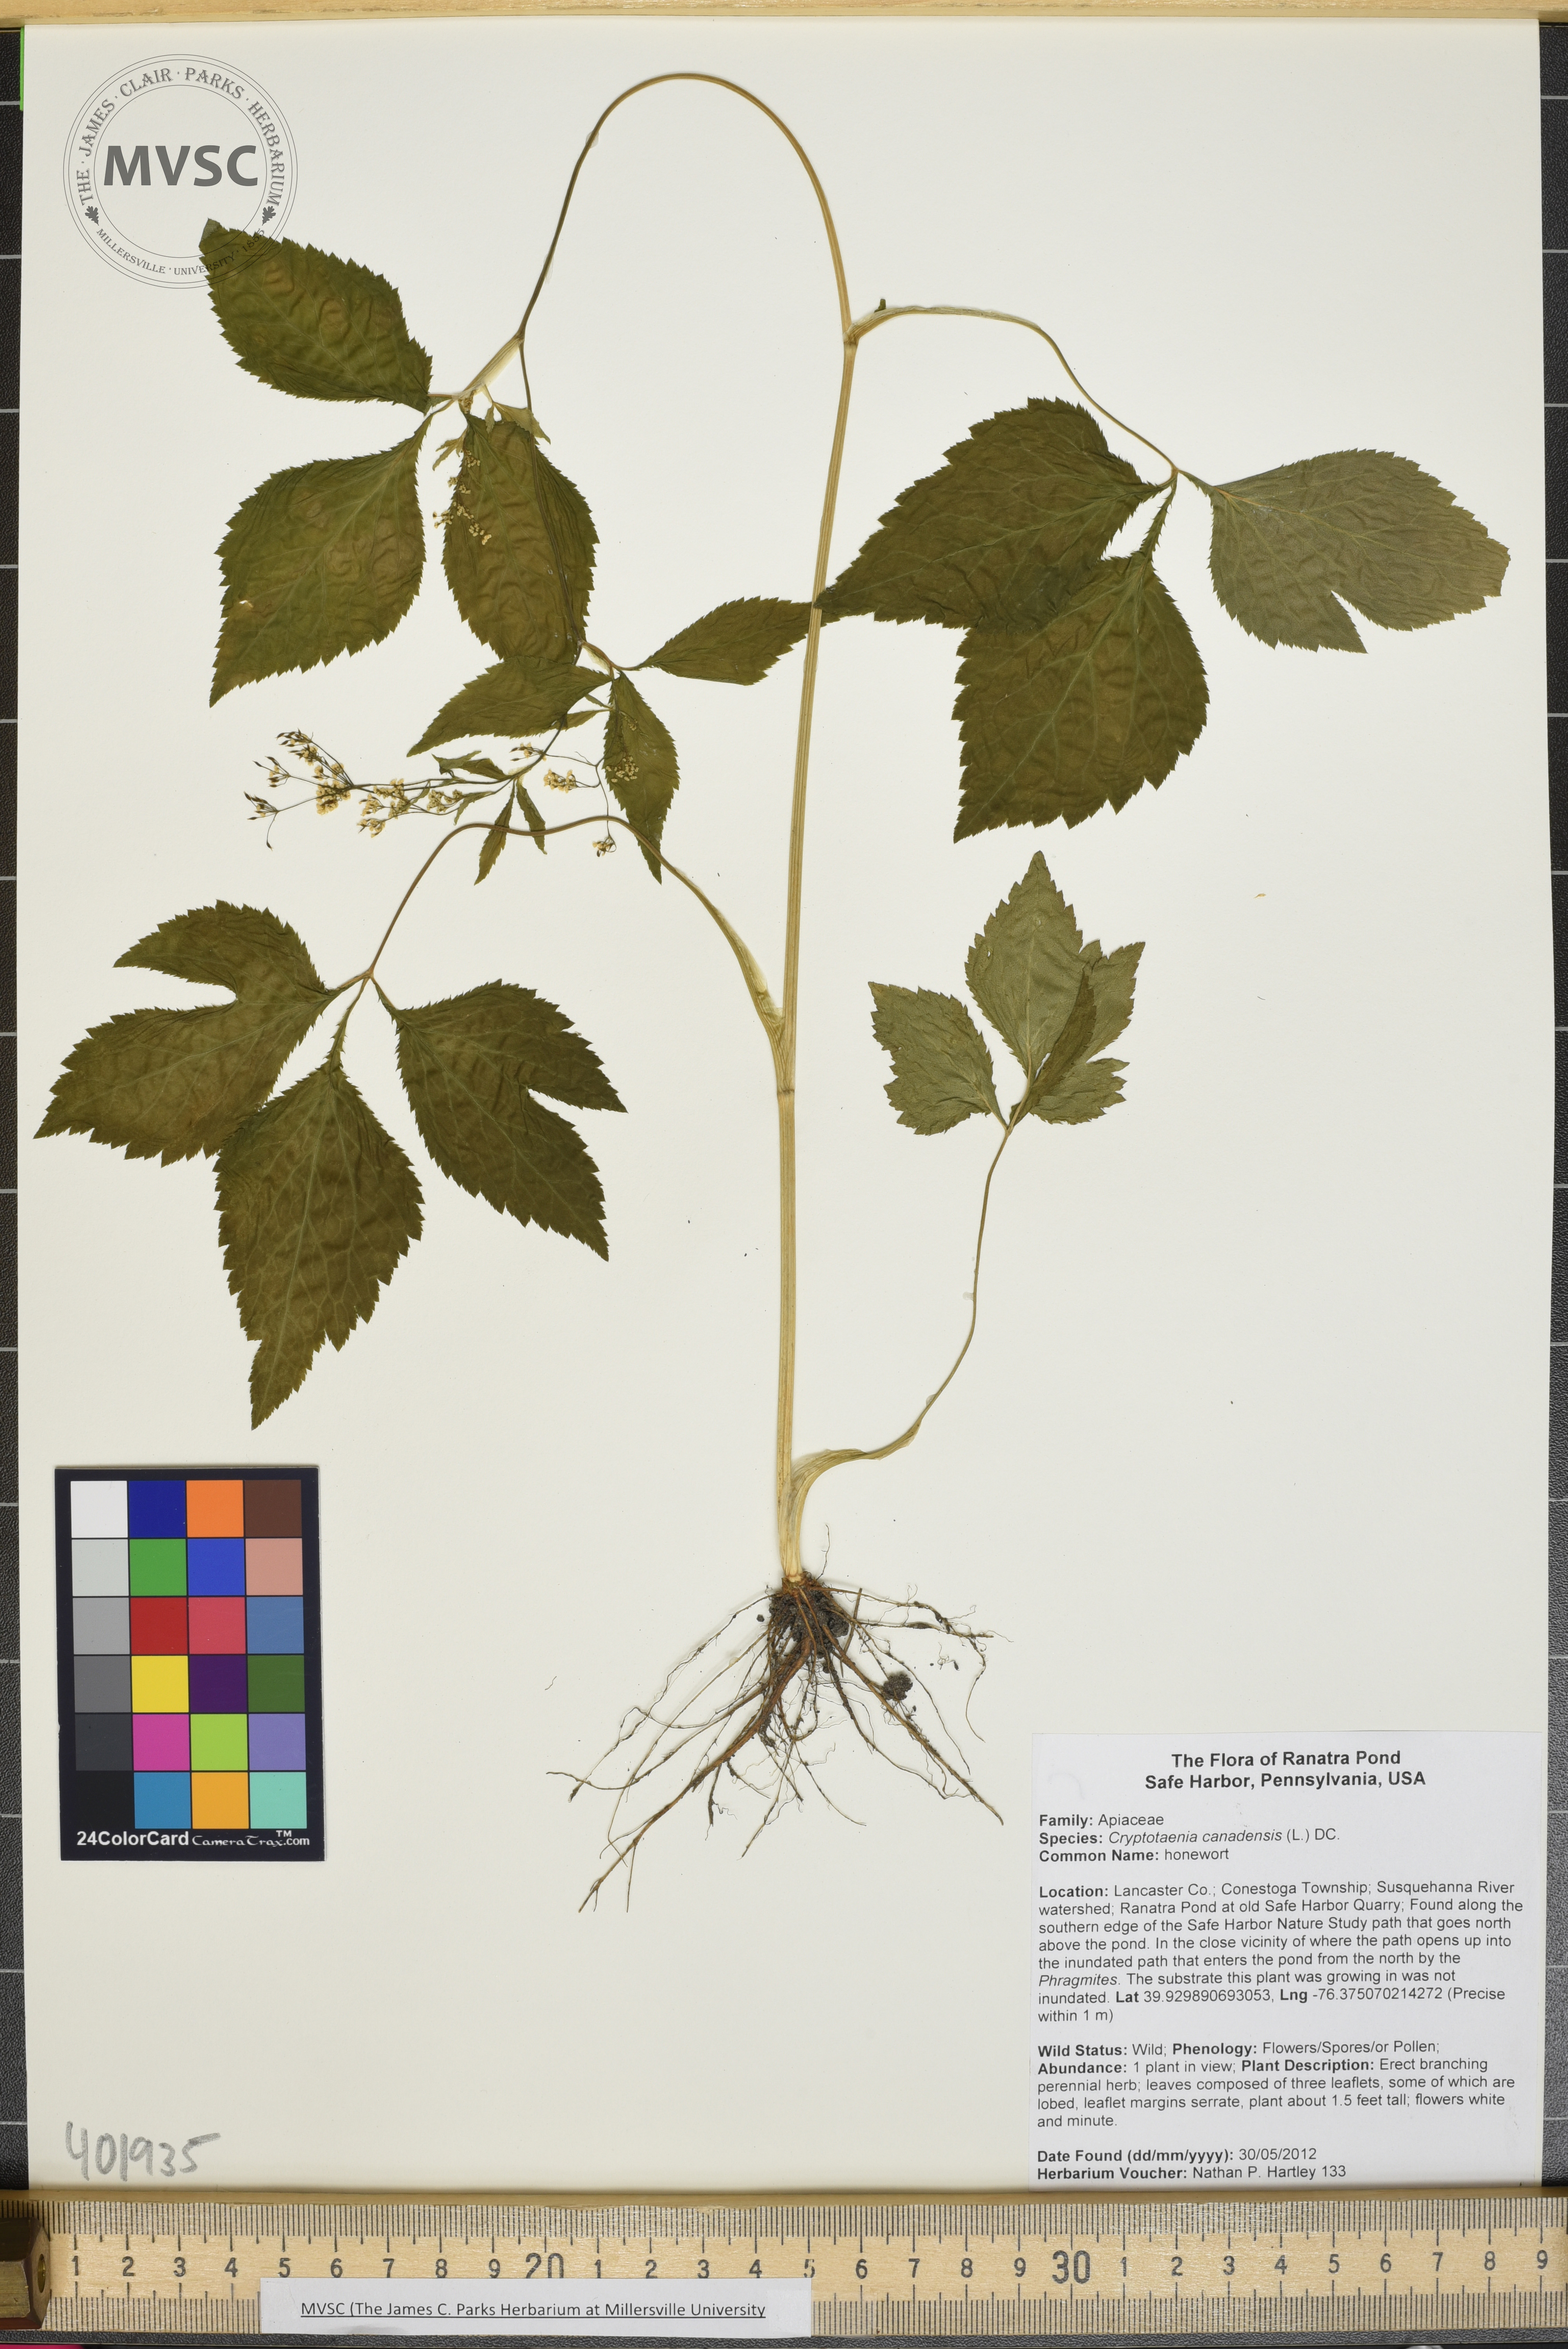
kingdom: Plantae
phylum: Tracheophyta
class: Magnoliopsida
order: Apiales
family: Apiaceae
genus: Cryptotaenia
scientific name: Cryptotaenia canadensis
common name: Honewort
